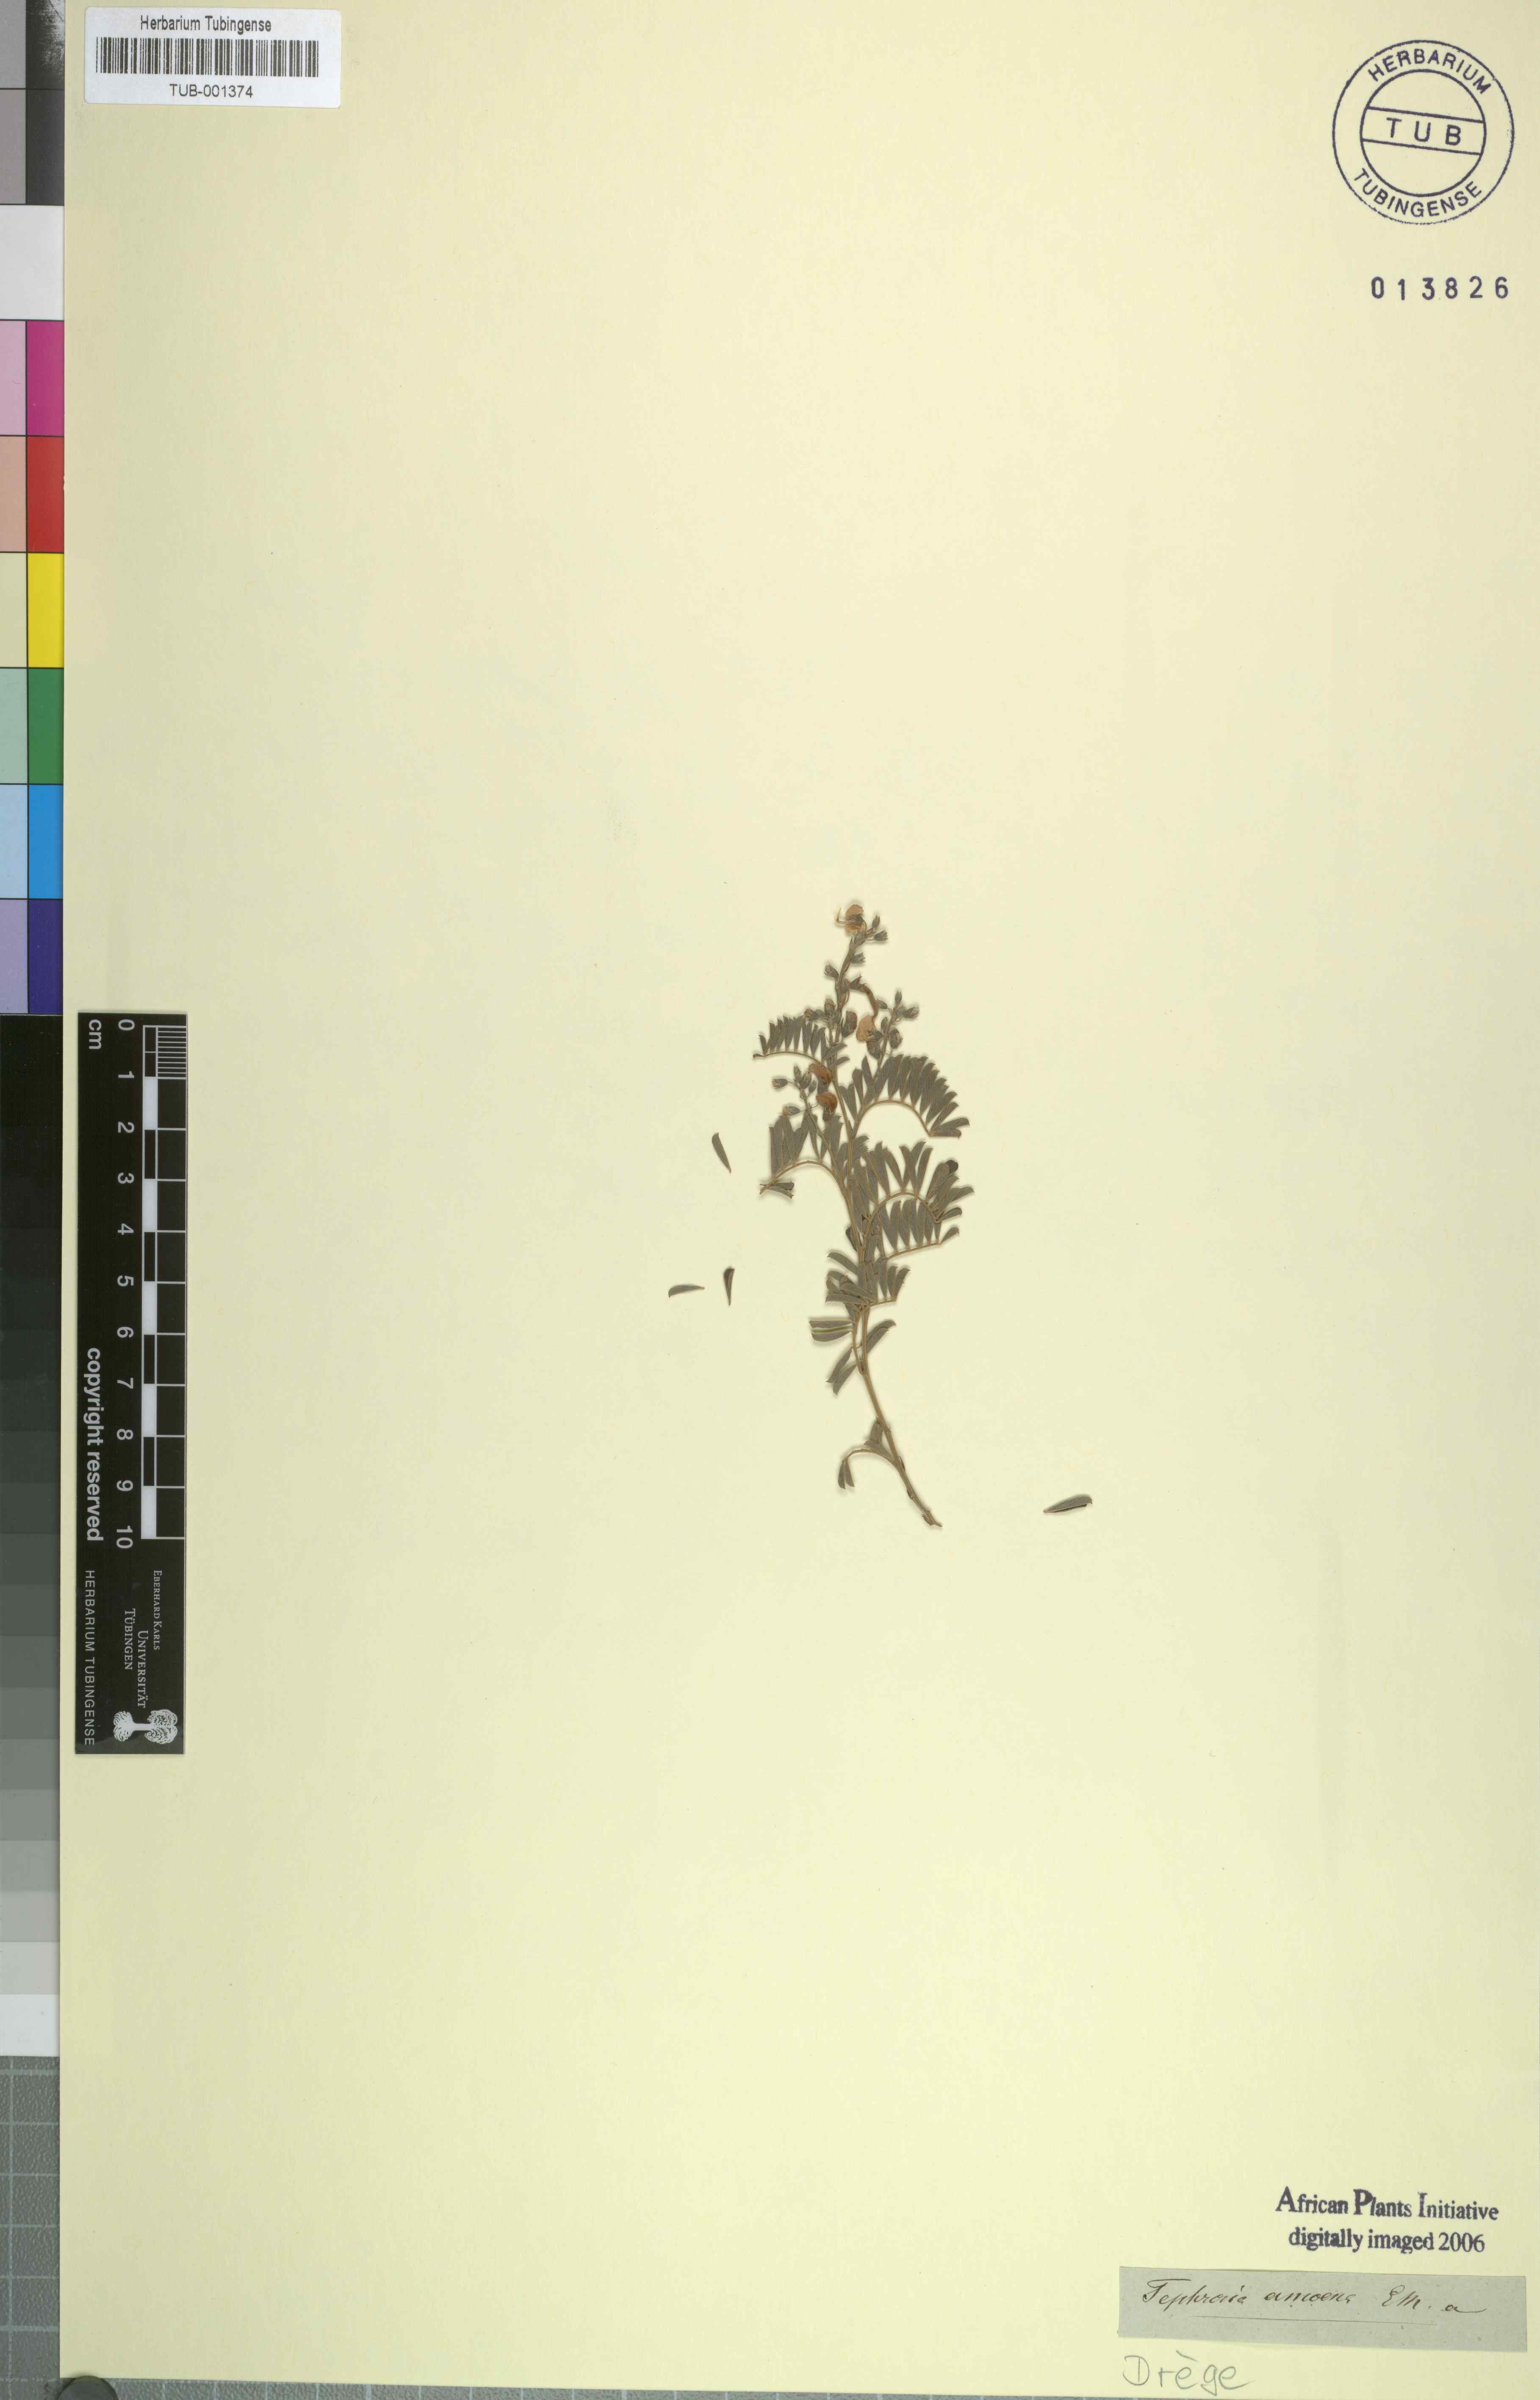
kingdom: Plantae
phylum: Tracheophyta
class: Magnoliopsida
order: Fabales
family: Fabaceae
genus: Tephrosia
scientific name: Tephrosia amoena
